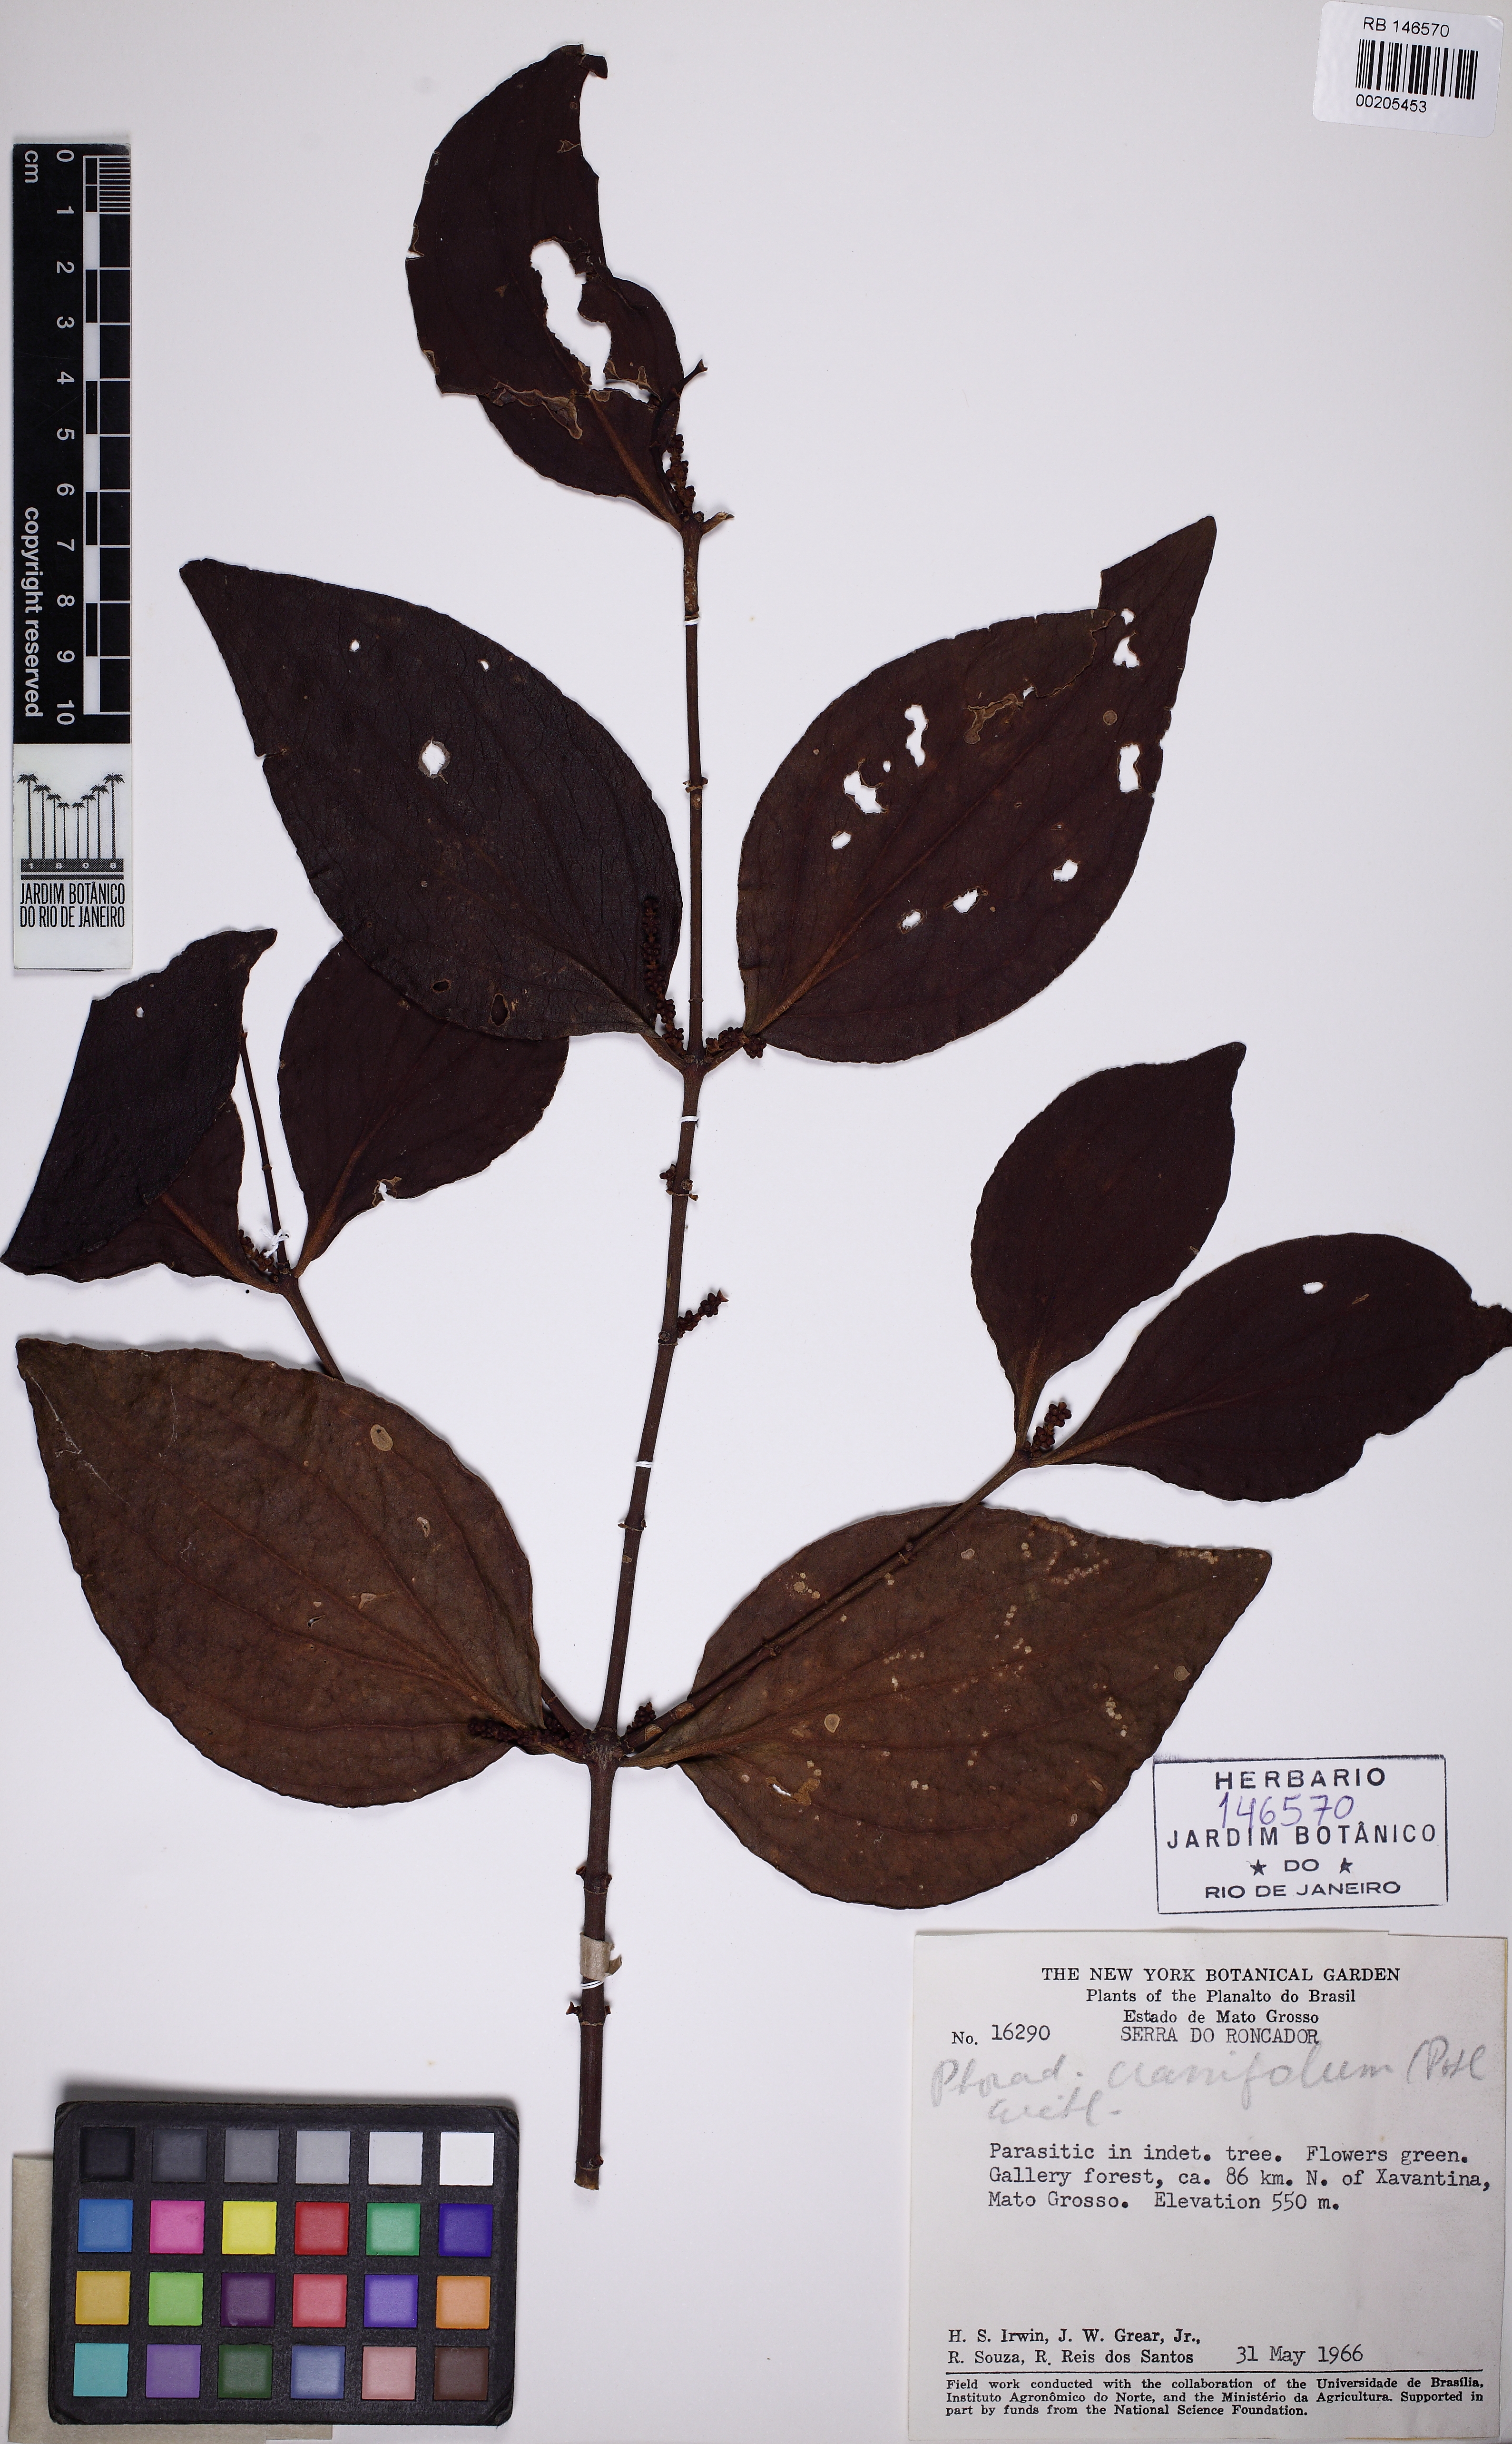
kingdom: Plantae
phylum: Tracheophyta
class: Magnoliopsida
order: Santalales
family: Viscaceae
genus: Phoradendron
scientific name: Phoradendron crassifolium
